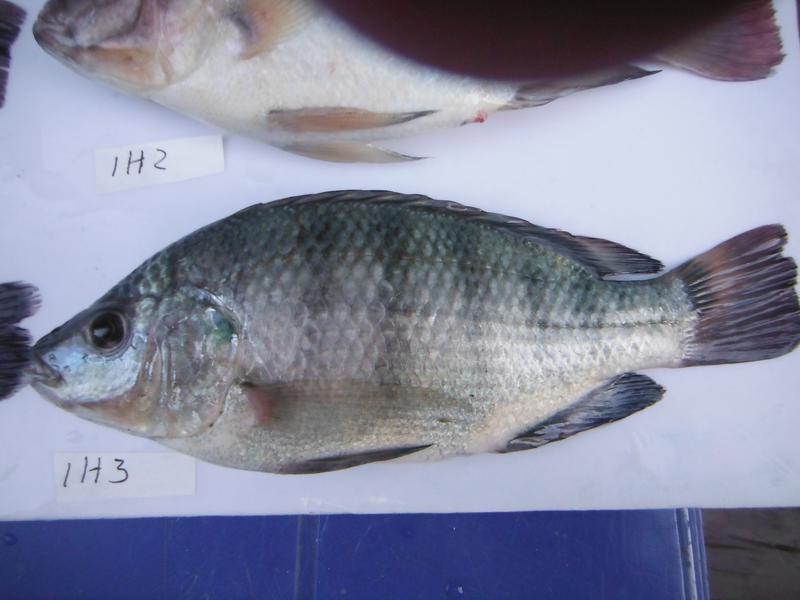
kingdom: Animalia
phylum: Chordata
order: Perciformes
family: Cichlidae
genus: Oreochromis
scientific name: Oreochromis rukwaensis
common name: Lake rukwa tilapia
